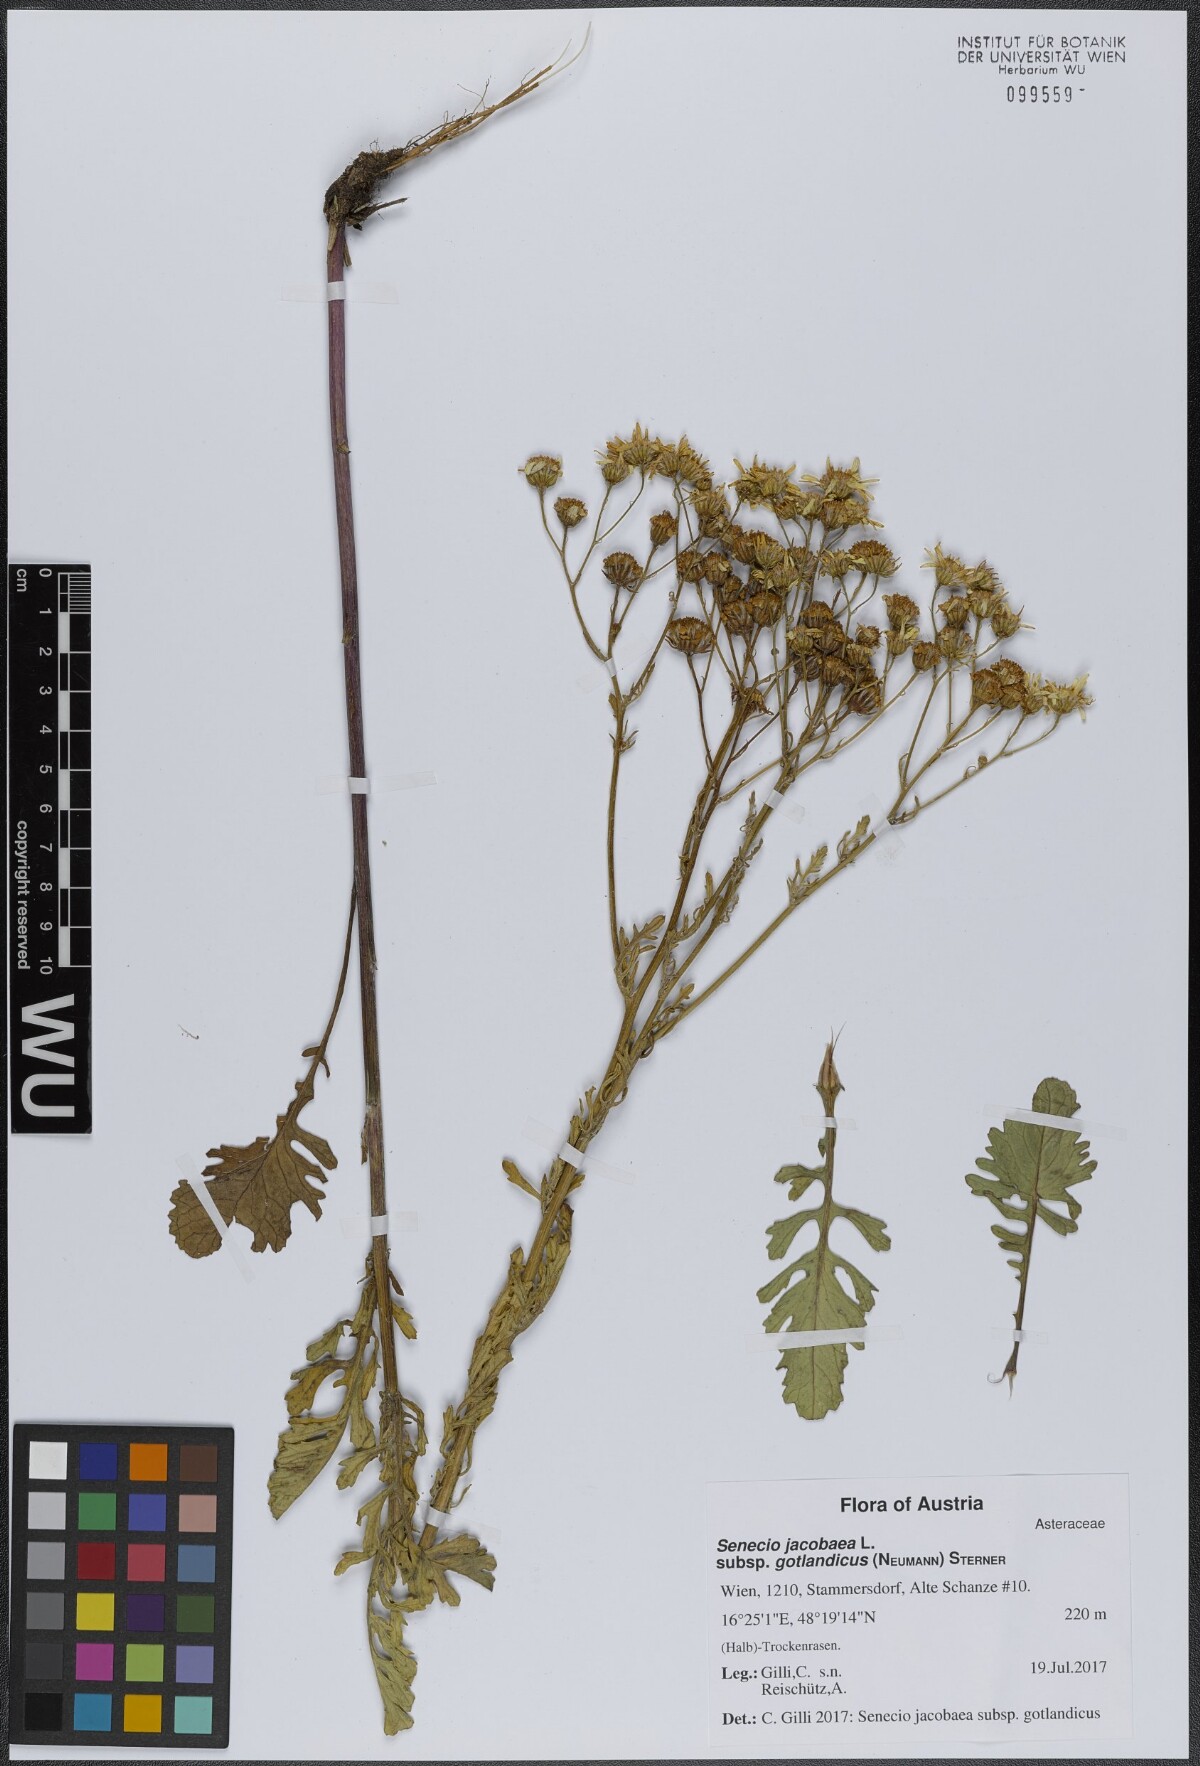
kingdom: Plantae
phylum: Tracheophyta
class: Magnoliopsida
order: Asterales
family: Asteraceae
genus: Jacobaea
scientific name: Jacobaea vulgaris
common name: Stinking willie
